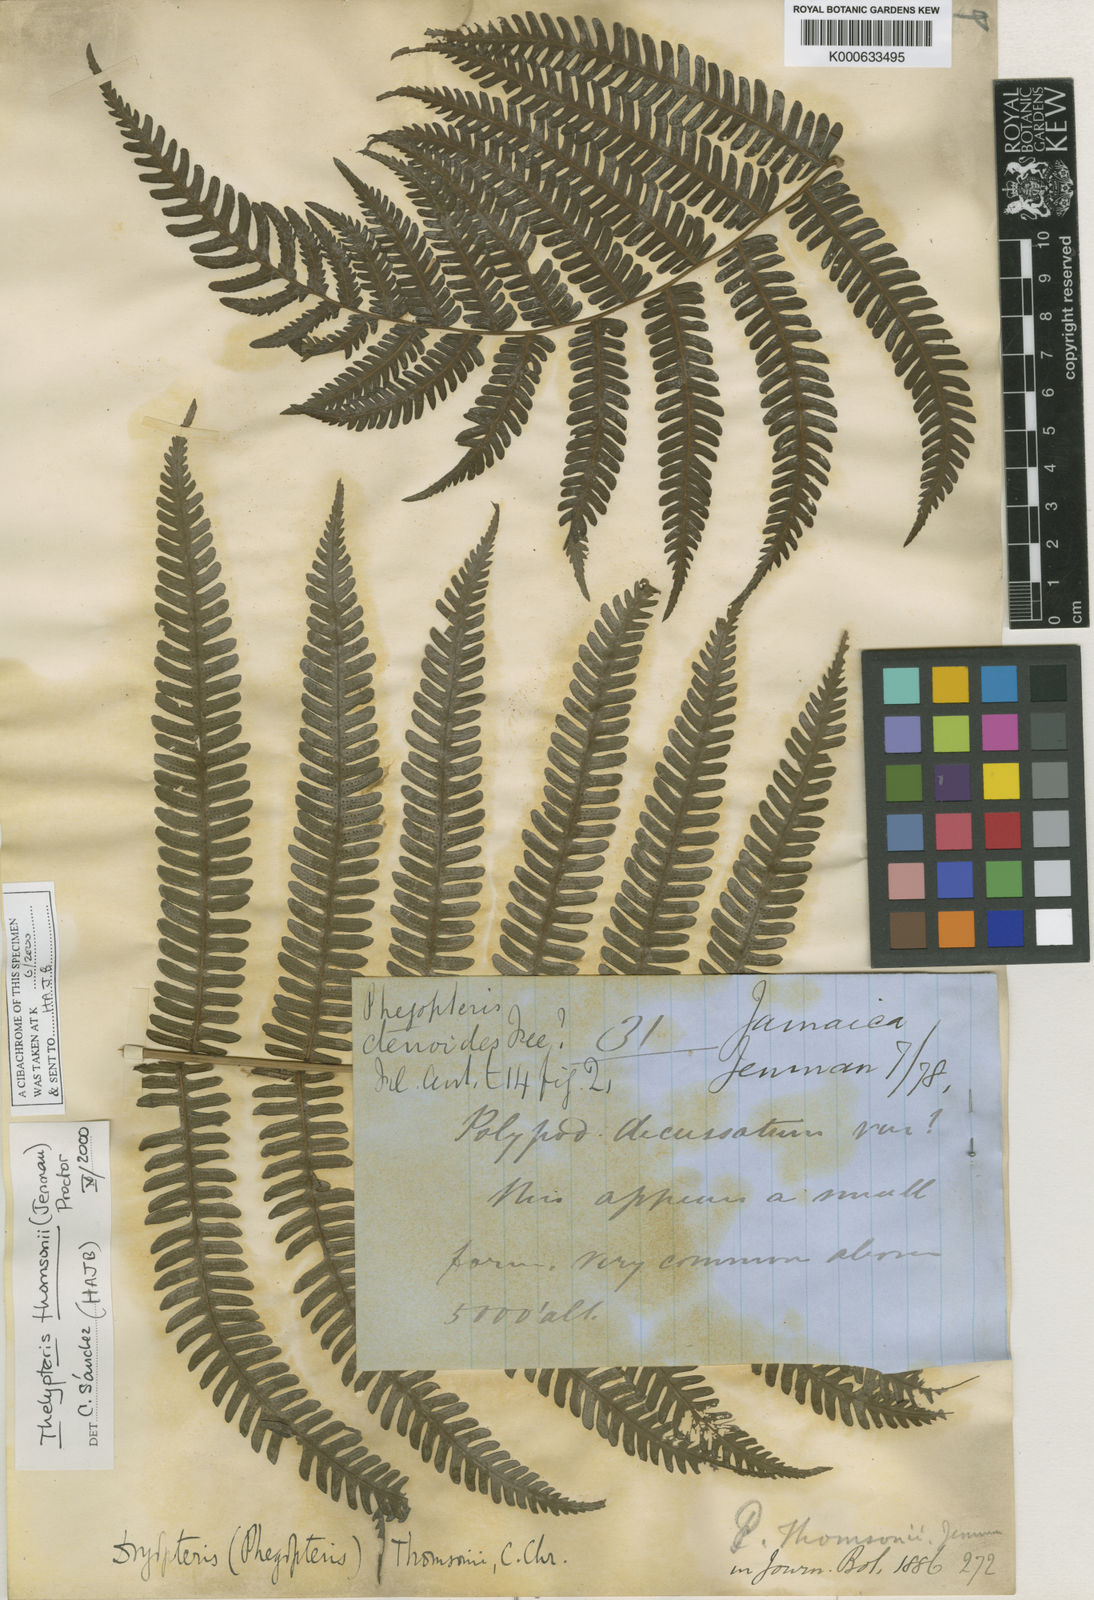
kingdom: Plantae
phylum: Tracheophyta
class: Polypodiopsida
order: Polypodiales
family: Thelypteridaceae
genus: Amauropelta
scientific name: Amauropelta thomsonii
